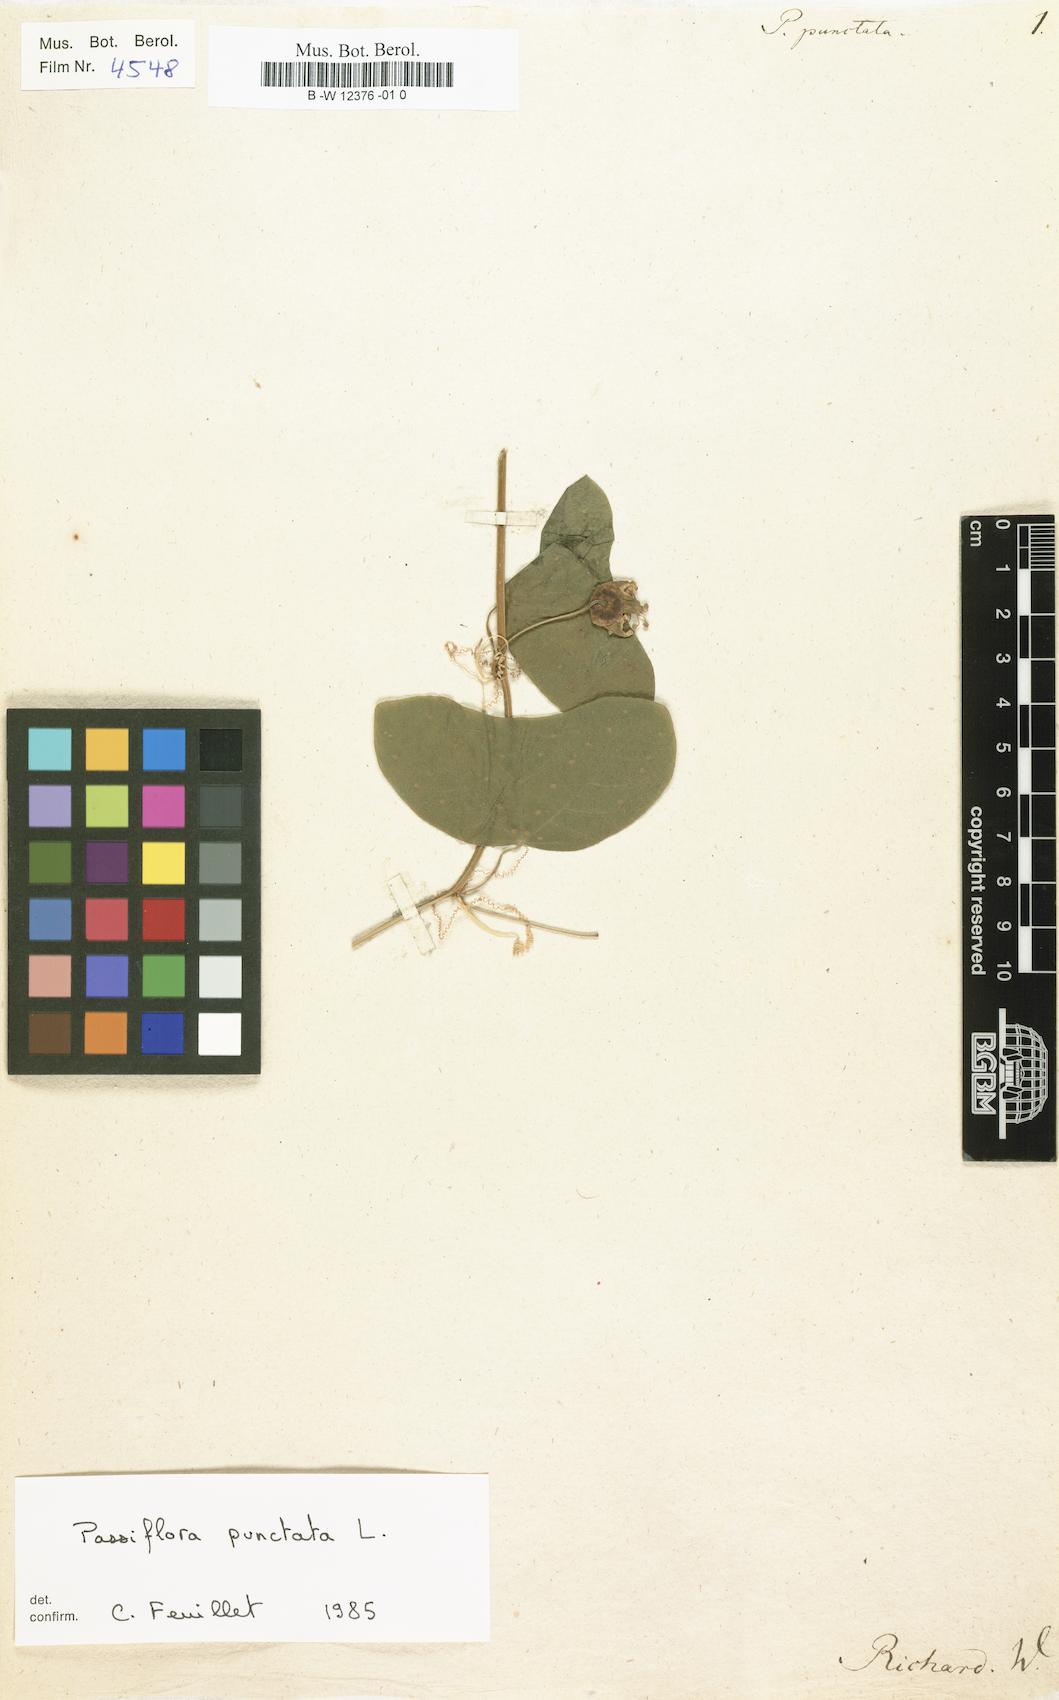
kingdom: Plantae
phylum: Tracheophyta
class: Magnoliopsida
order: Malpighiales
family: Passifloraceae
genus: Passiflora
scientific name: Passiflora punctata
